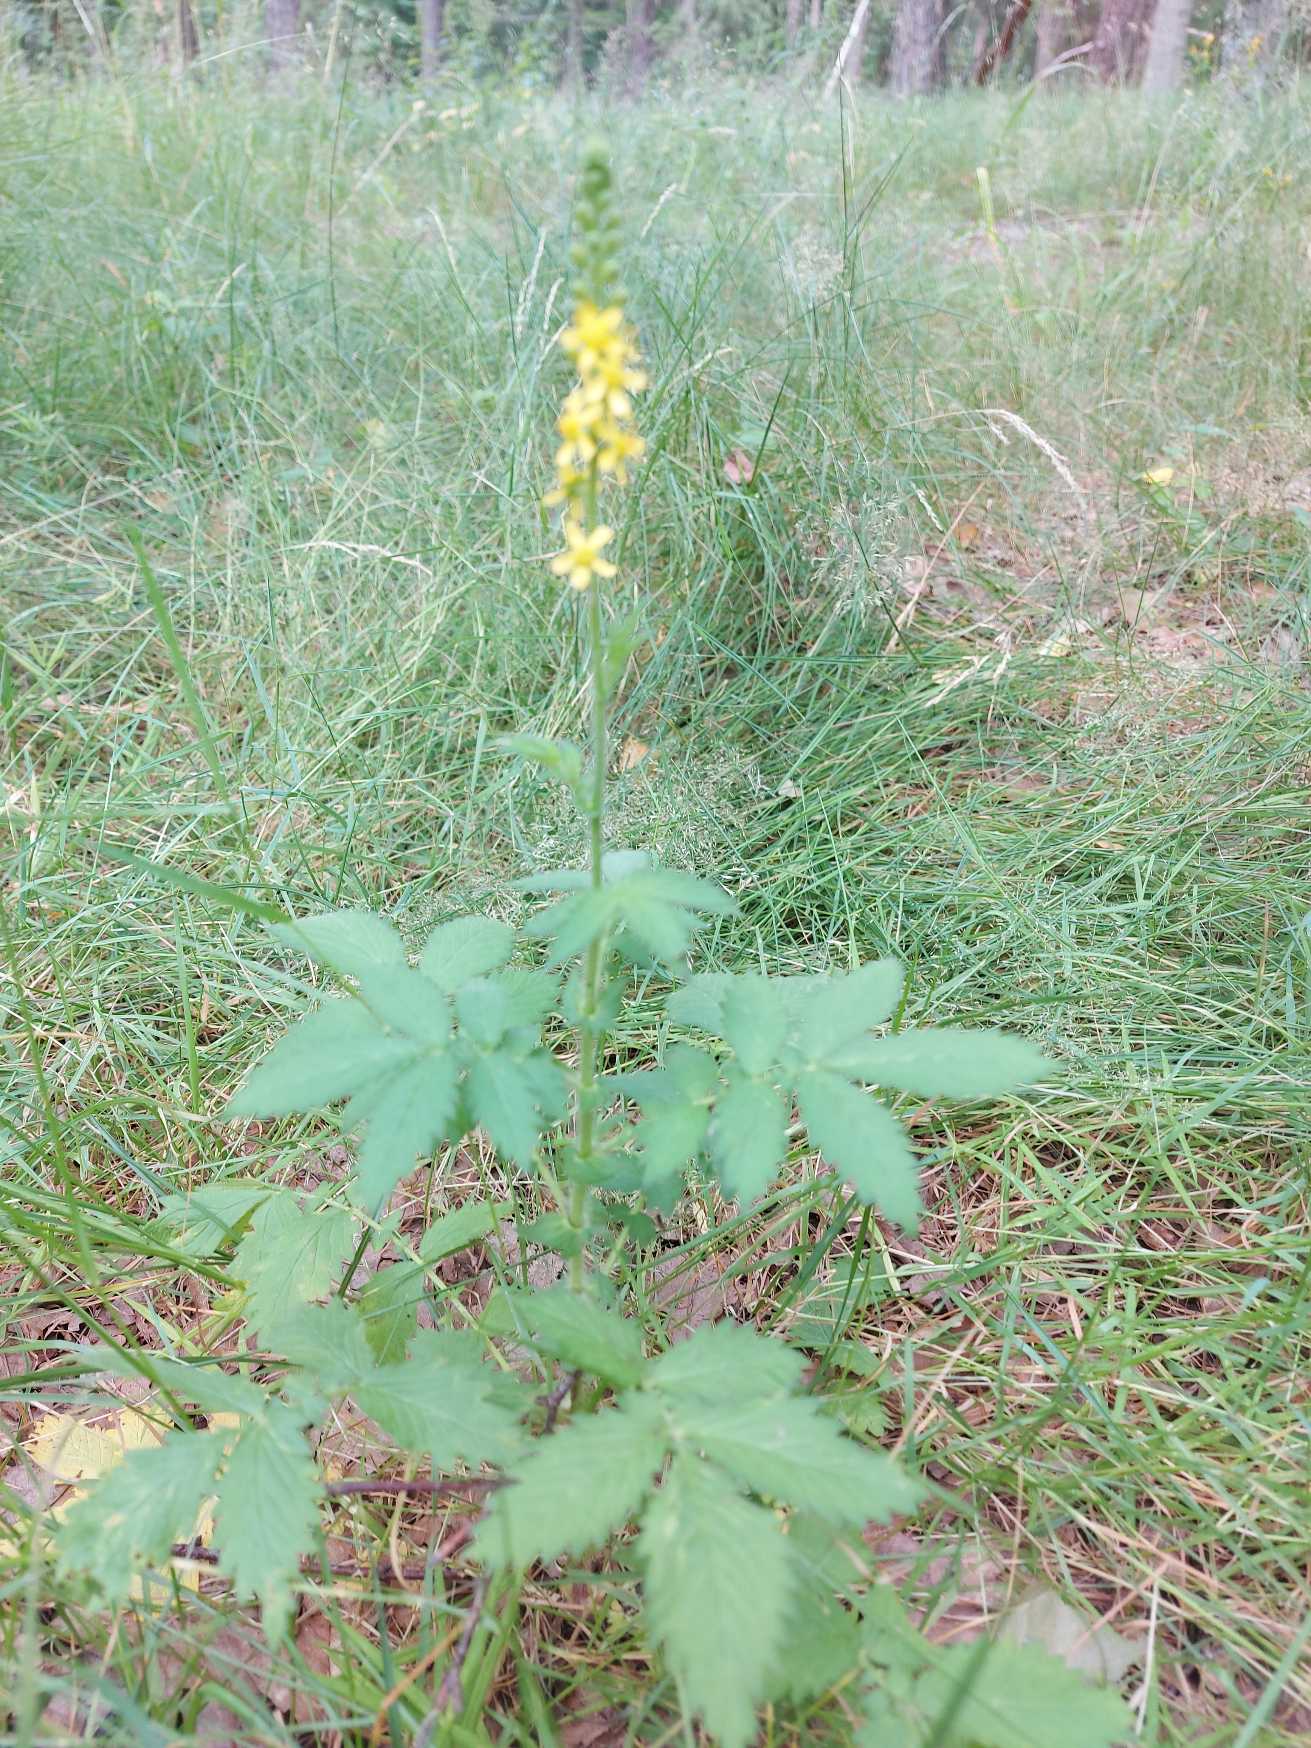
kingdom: Plantae
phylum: Tracheophyta
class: Magnoliopsida
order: Rosales
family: Rosaceae
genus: Agrimonia
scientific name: Agrimonia eupatoria
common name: Almindelig agermåne
